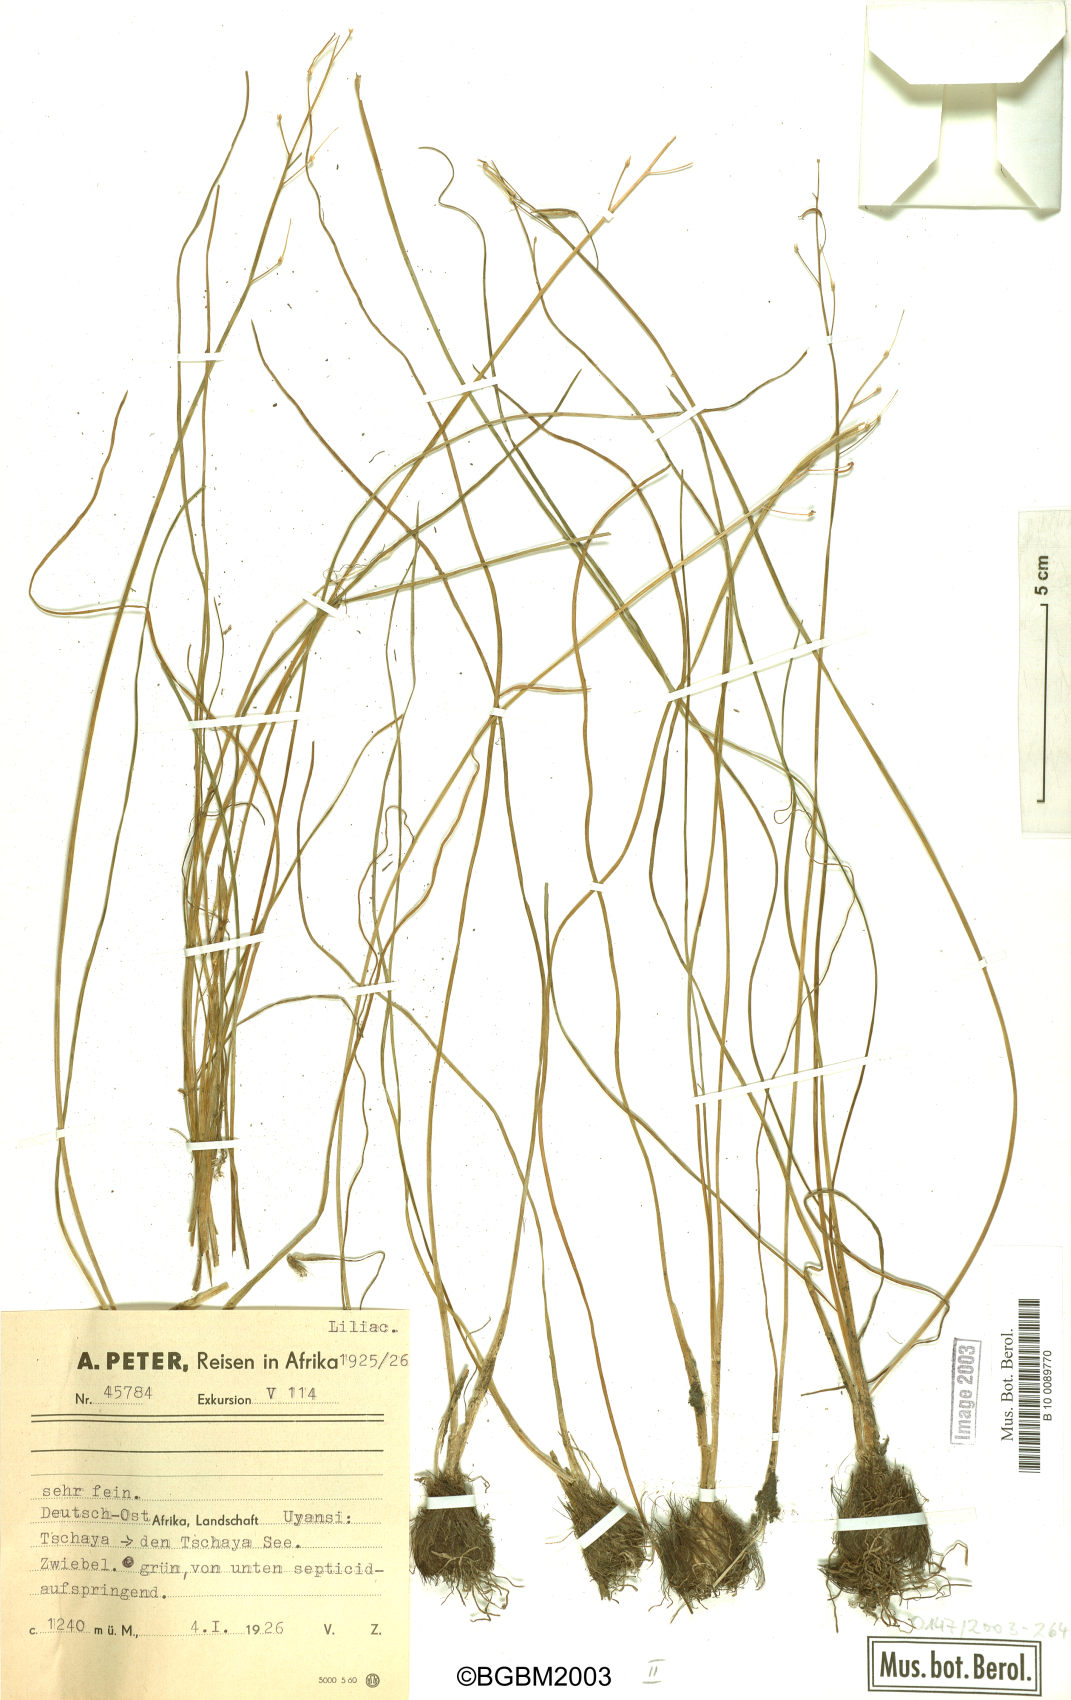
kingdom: Plantae
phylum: Tracheophyta
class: Liliopsida
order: Alismatales
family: Juncaginaceae
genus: Triglochin
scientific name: Triglochin milnei
